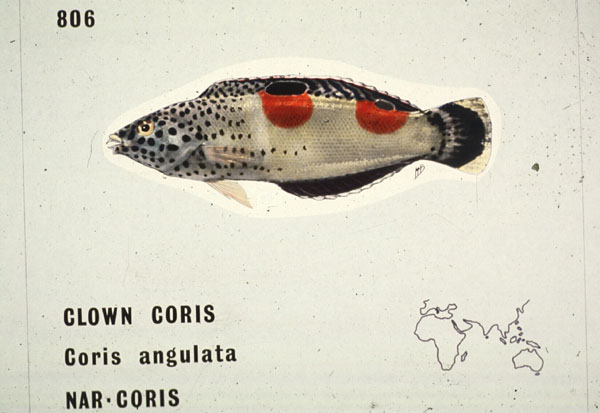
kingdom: Animalia
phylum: Chordata
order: Perciformes
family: Labridae
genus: Coris
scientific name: Coris aygula
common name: Clown coris
